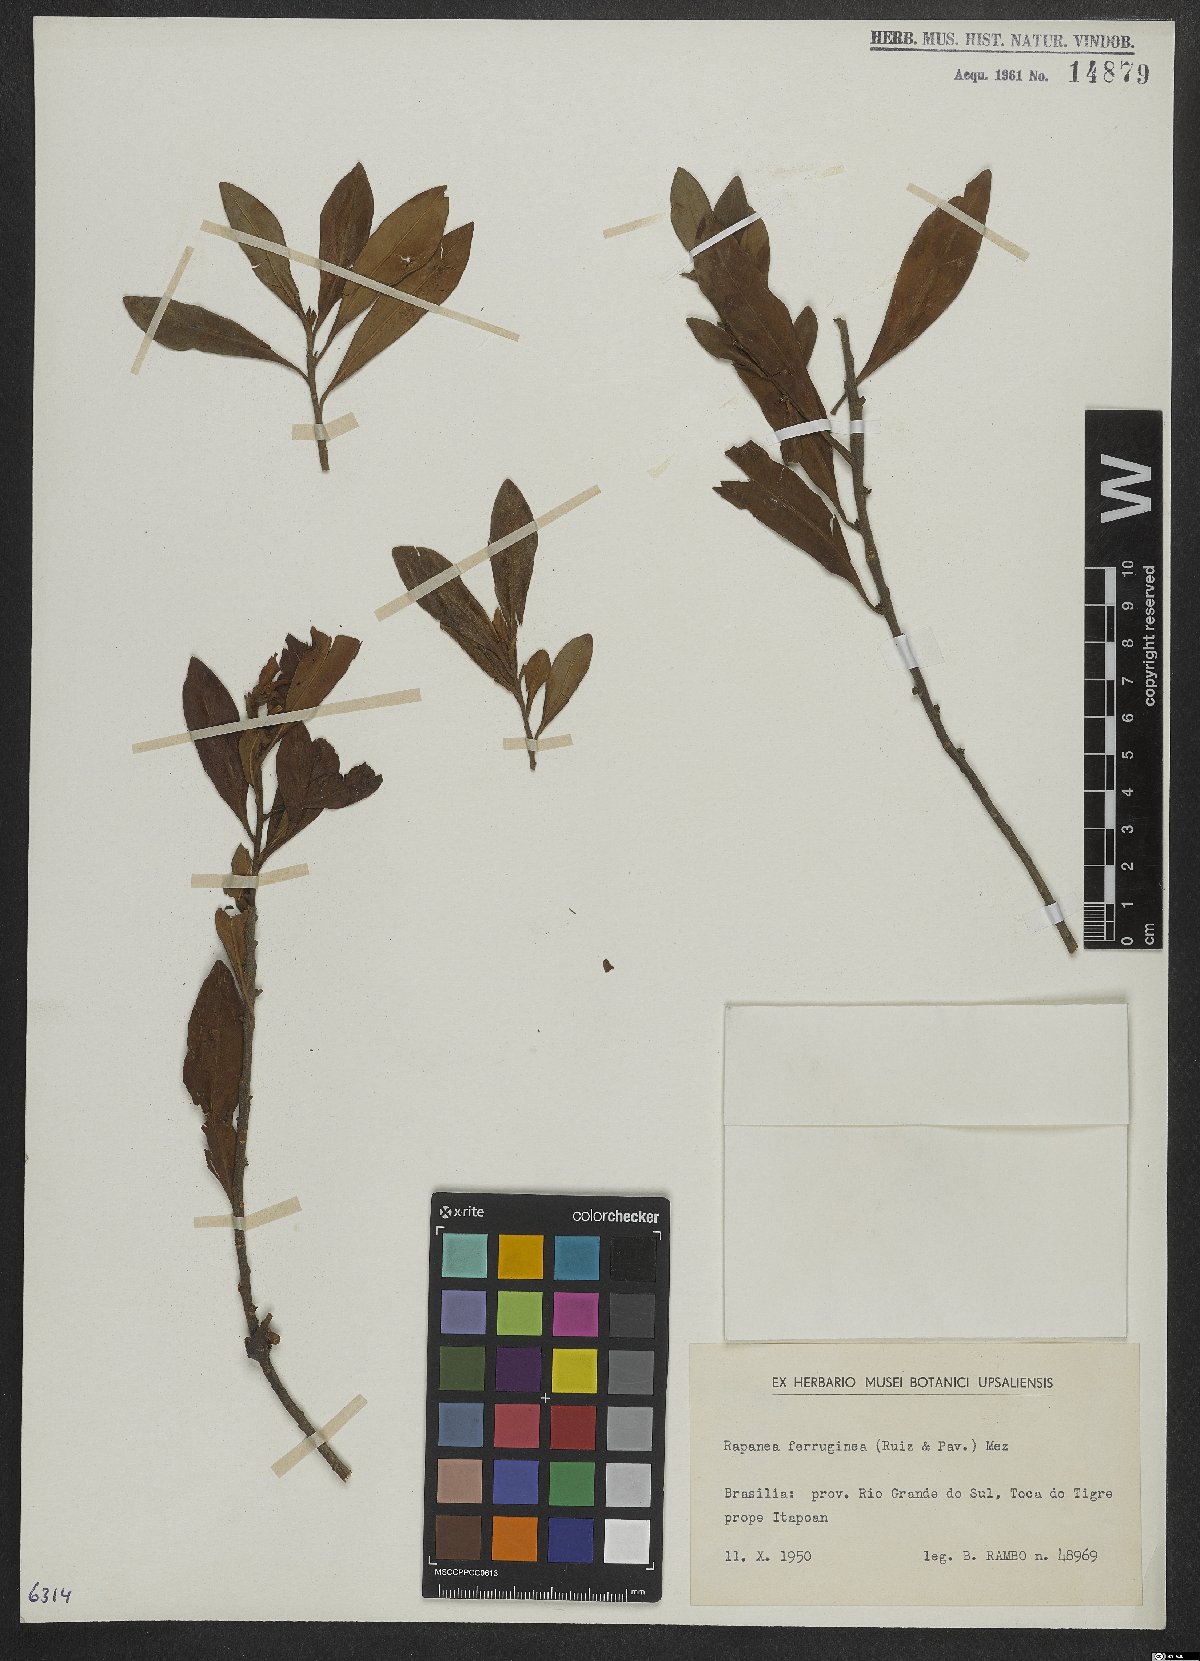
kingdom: Plantae
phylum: Tracheophyta
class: Magnoliopsida
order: Ericales
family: Primulaceae
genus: Myrsine
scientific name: Myrsine coriacea
